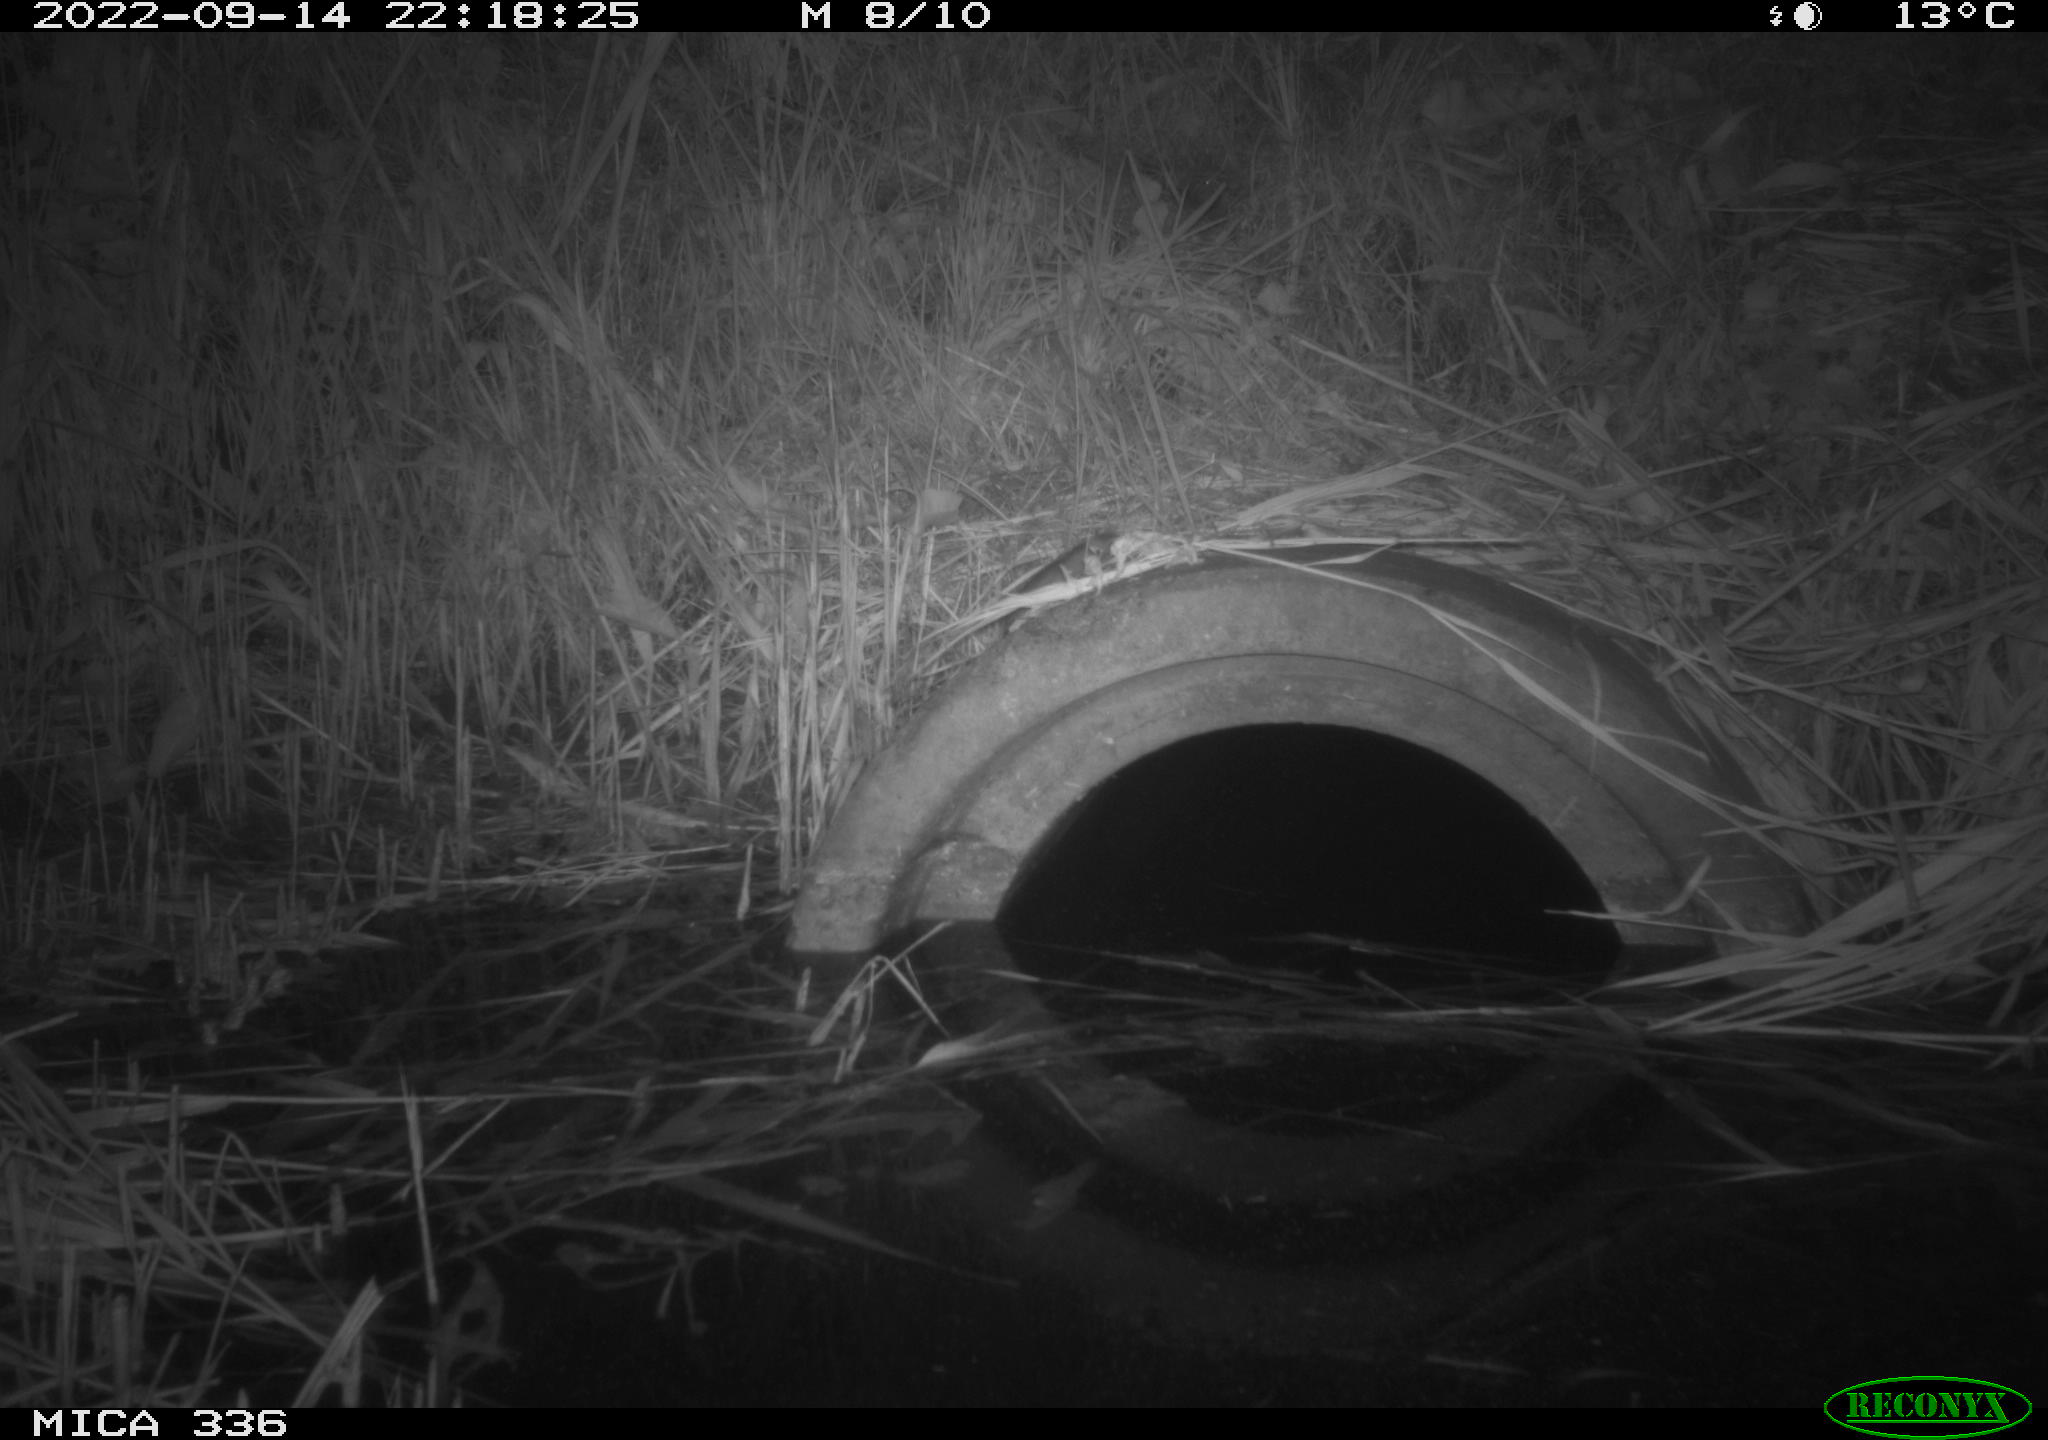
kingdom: Animalia
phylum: Chordata
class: Mammalia
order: Rodentia
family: Muridae
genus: Rattus
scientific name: Rattus norvegicus
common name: Brown rat
